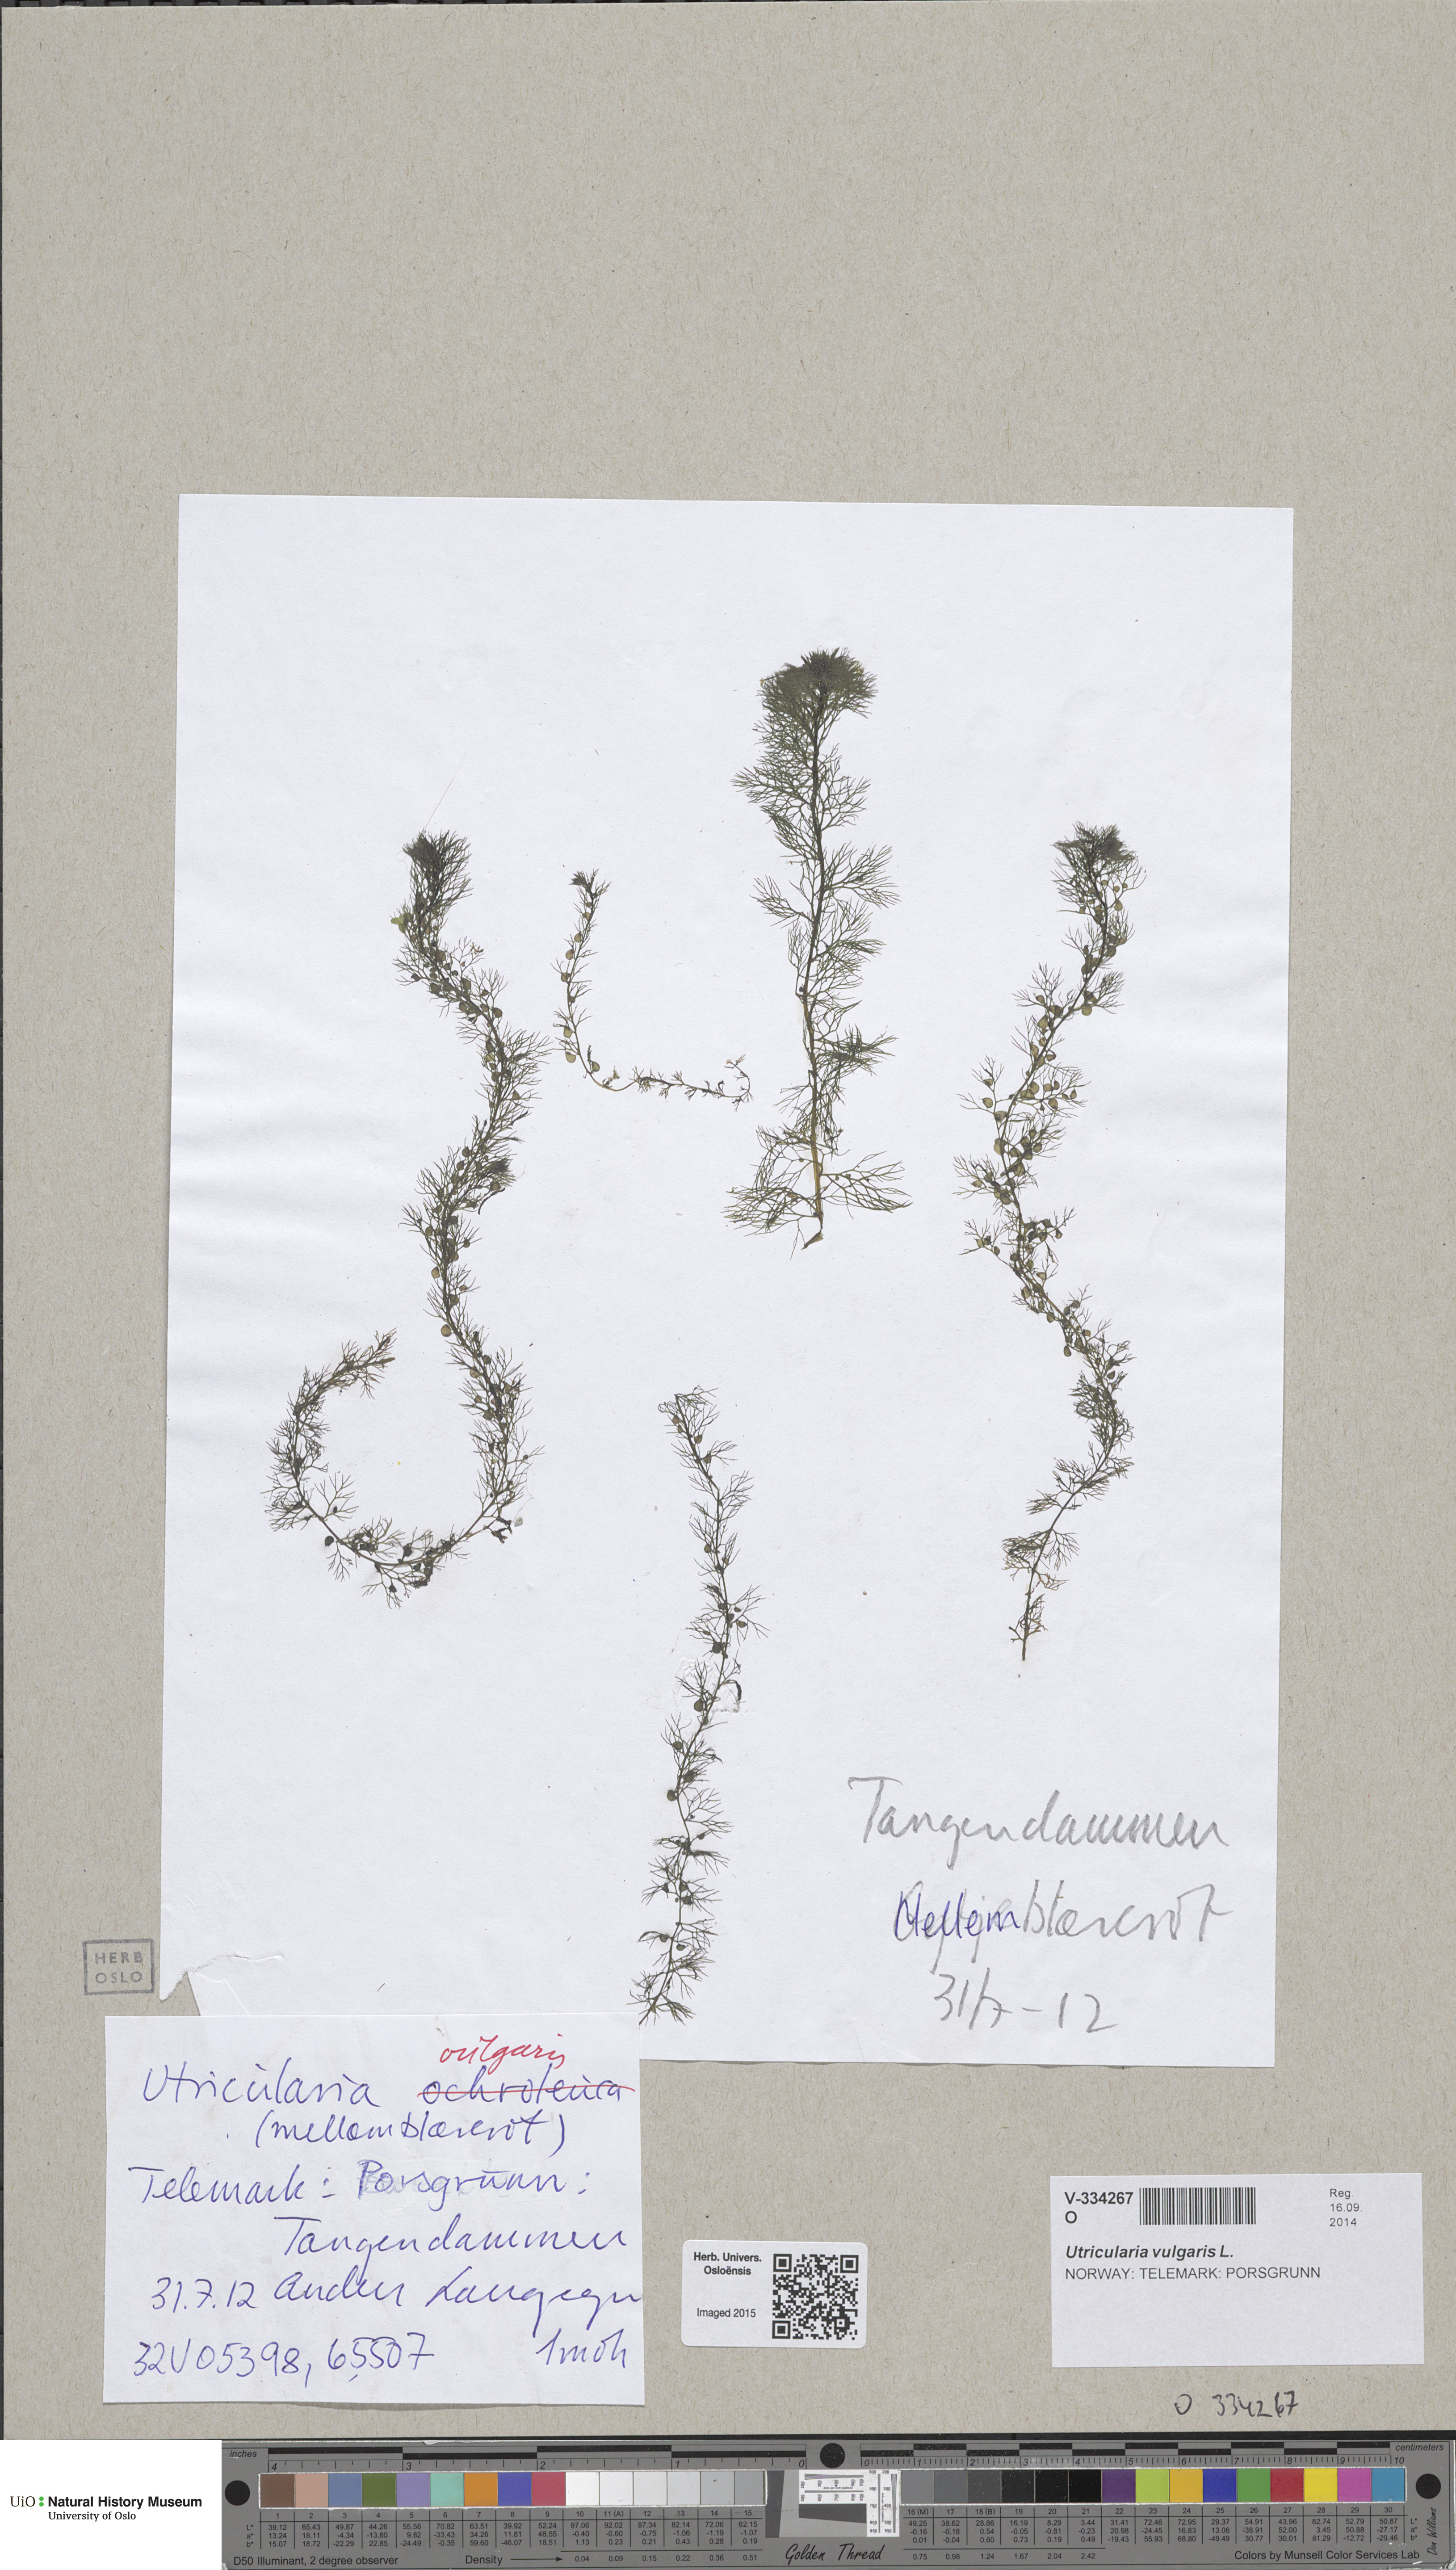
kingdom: Plantae
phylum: Tracheophyta
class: Magnoliopsida
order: Lamiales
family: Lentibulariaceae
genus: Utricularia
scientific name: Utricularia vulgaris
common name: Greater bladderwort
